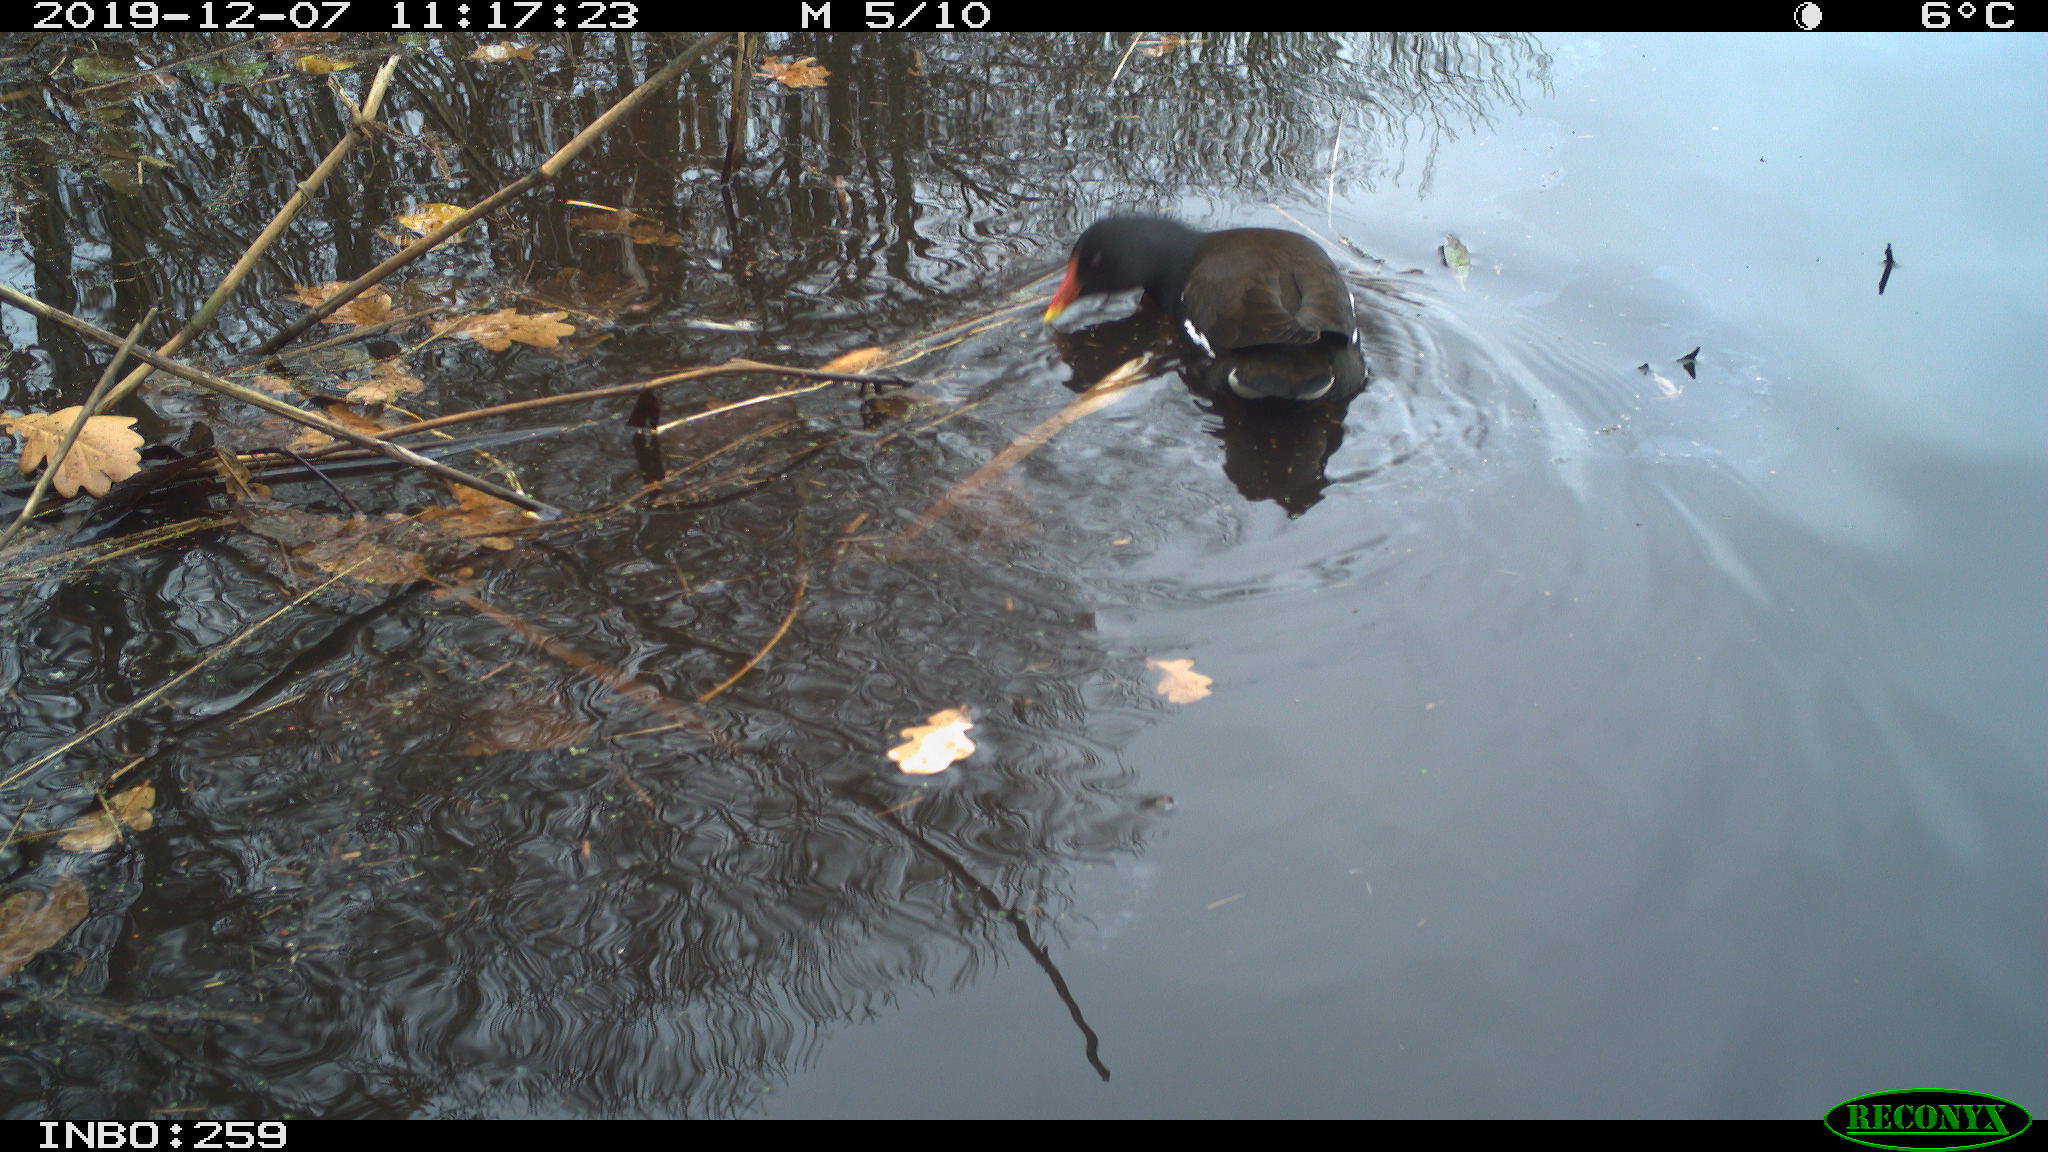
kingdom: Animalia
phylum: Chordata
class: Aves
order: Gruiformes
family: Rallidae
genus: Gallinula
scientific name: Gallinula chloropus
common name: Common moorhen
